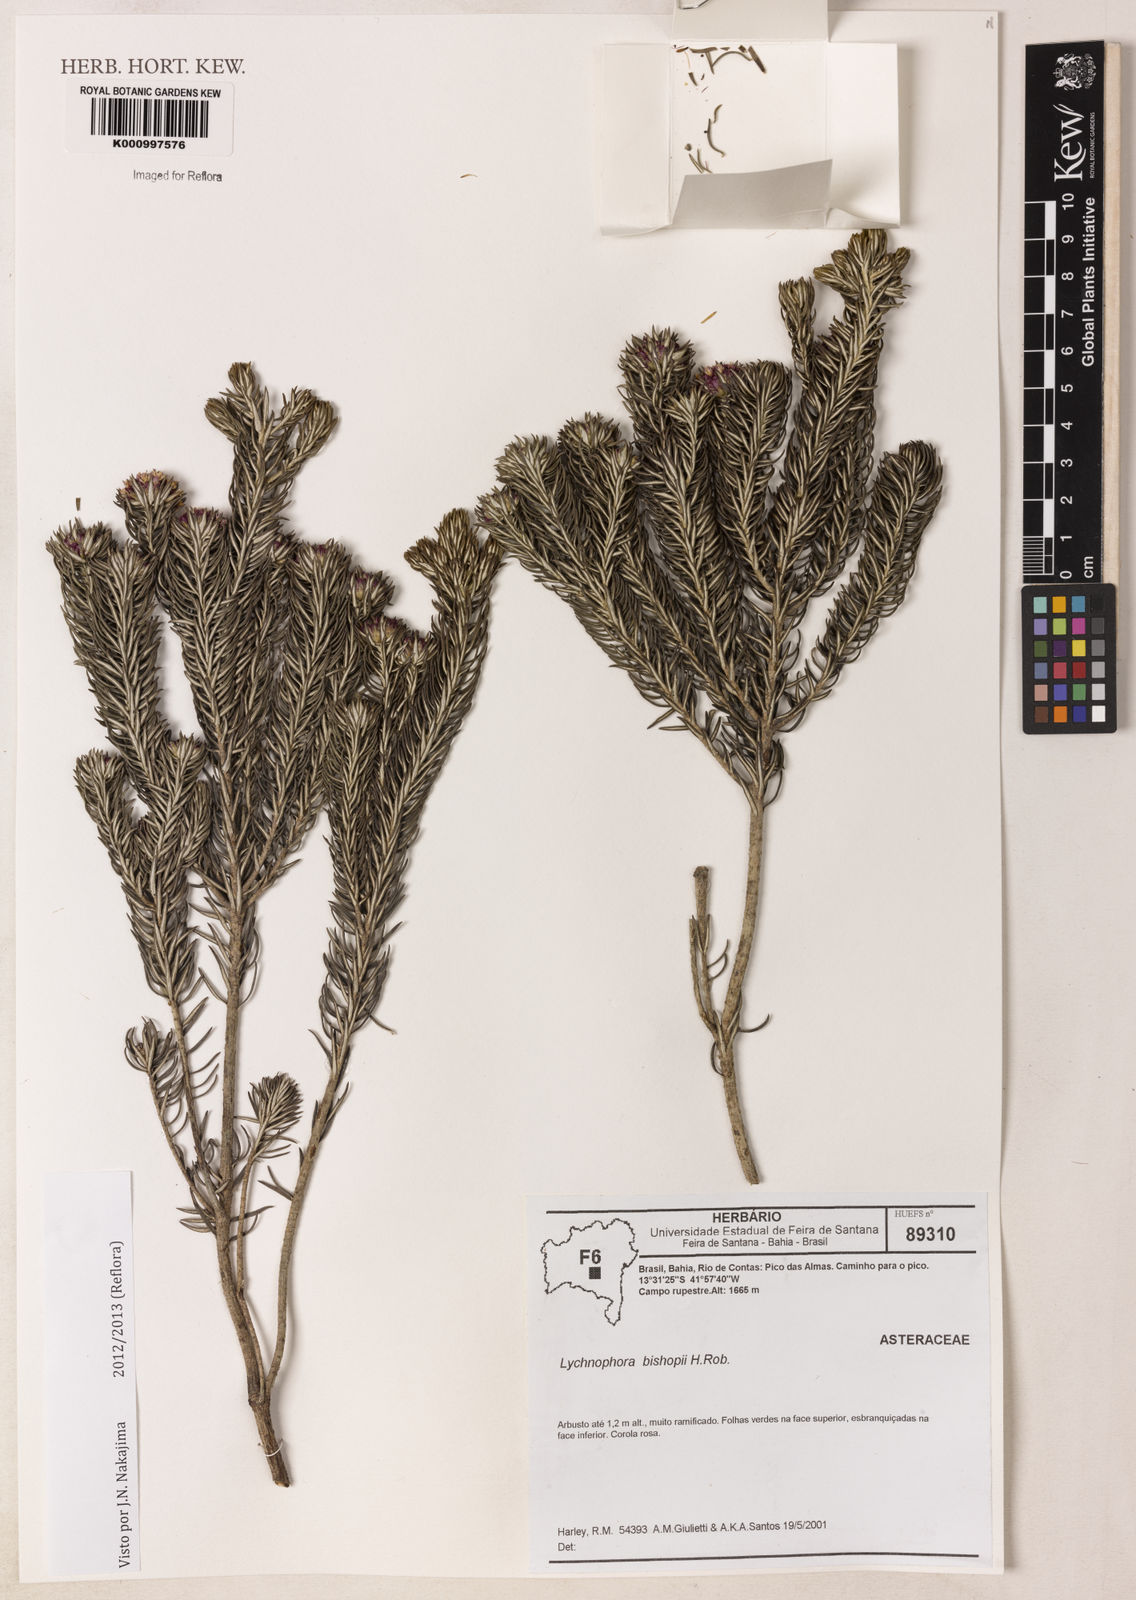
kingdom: Plantae
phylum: Tracheophyta
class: Magnoliopsida
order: Asterales
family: Asteraceae
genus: Lychnophorella
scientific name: Lychnophorella bishopii
